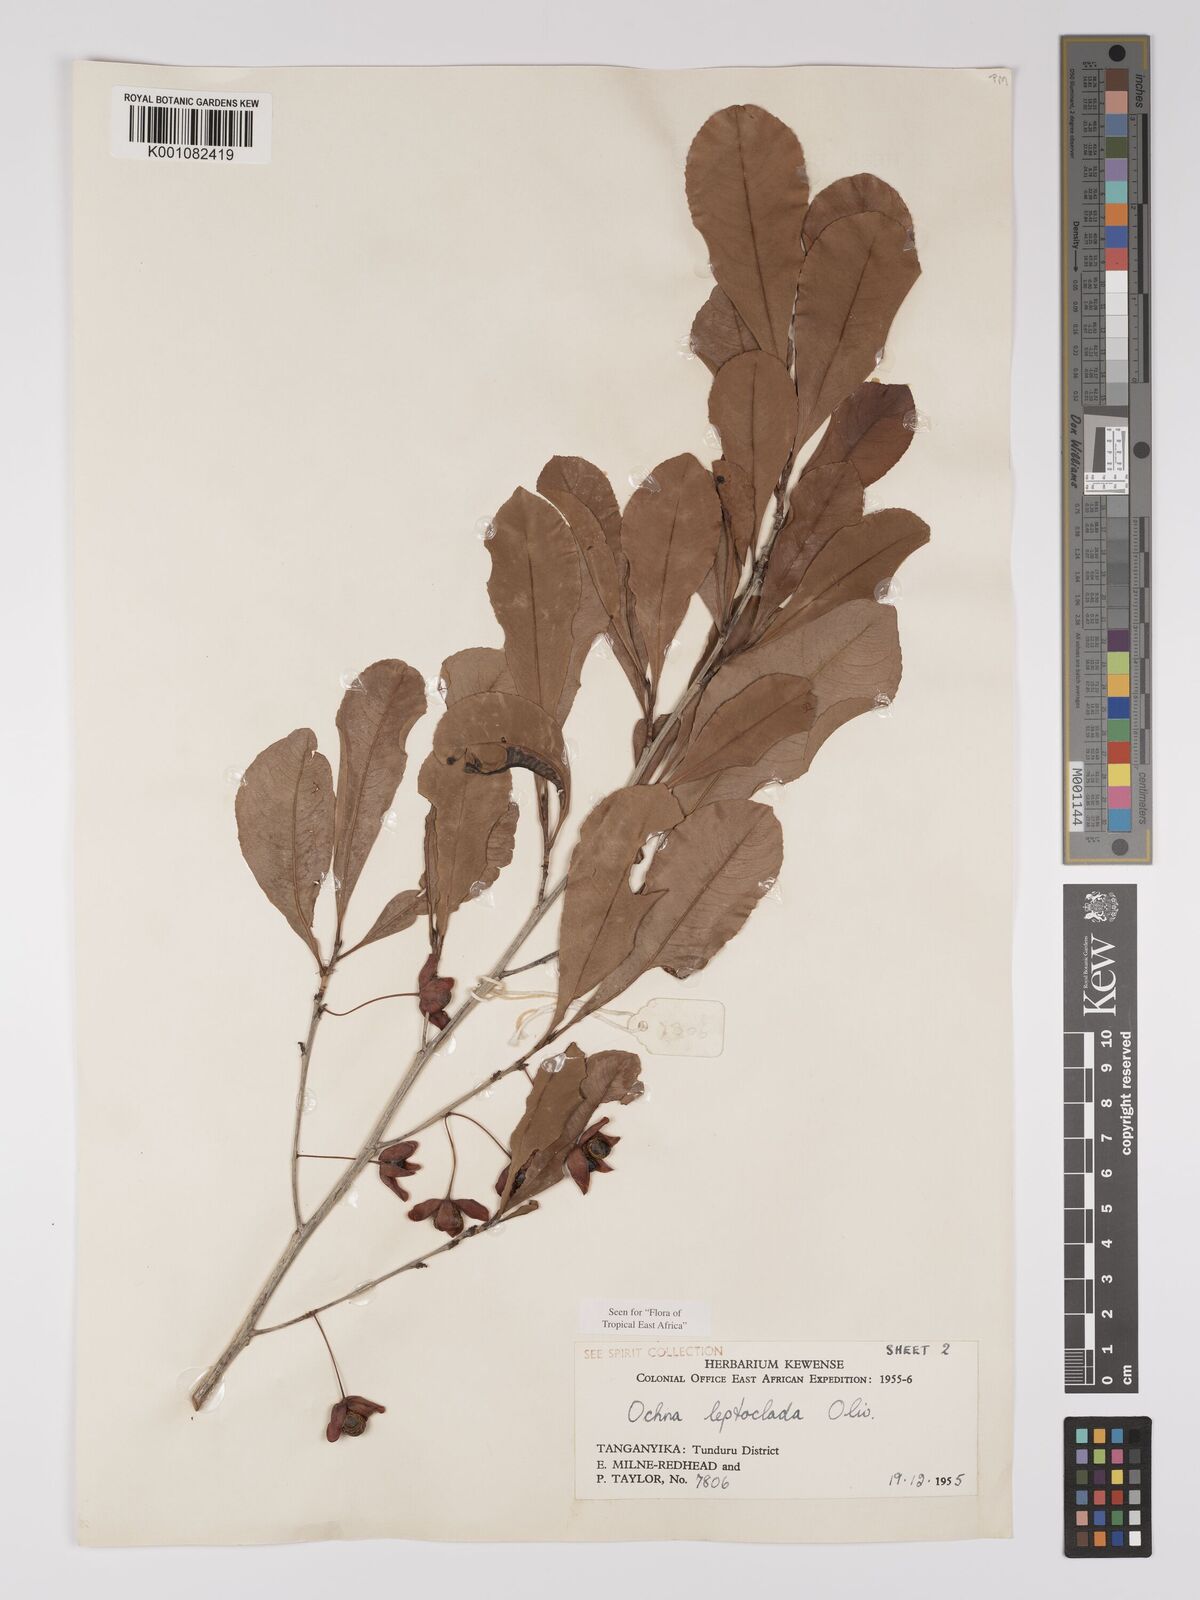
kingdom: Plantae
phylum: Tracheophyta
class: Magnoliopsida
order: Malpighiales
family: Ochnaceae
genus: Ochna
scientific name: Ochna leptoclada
